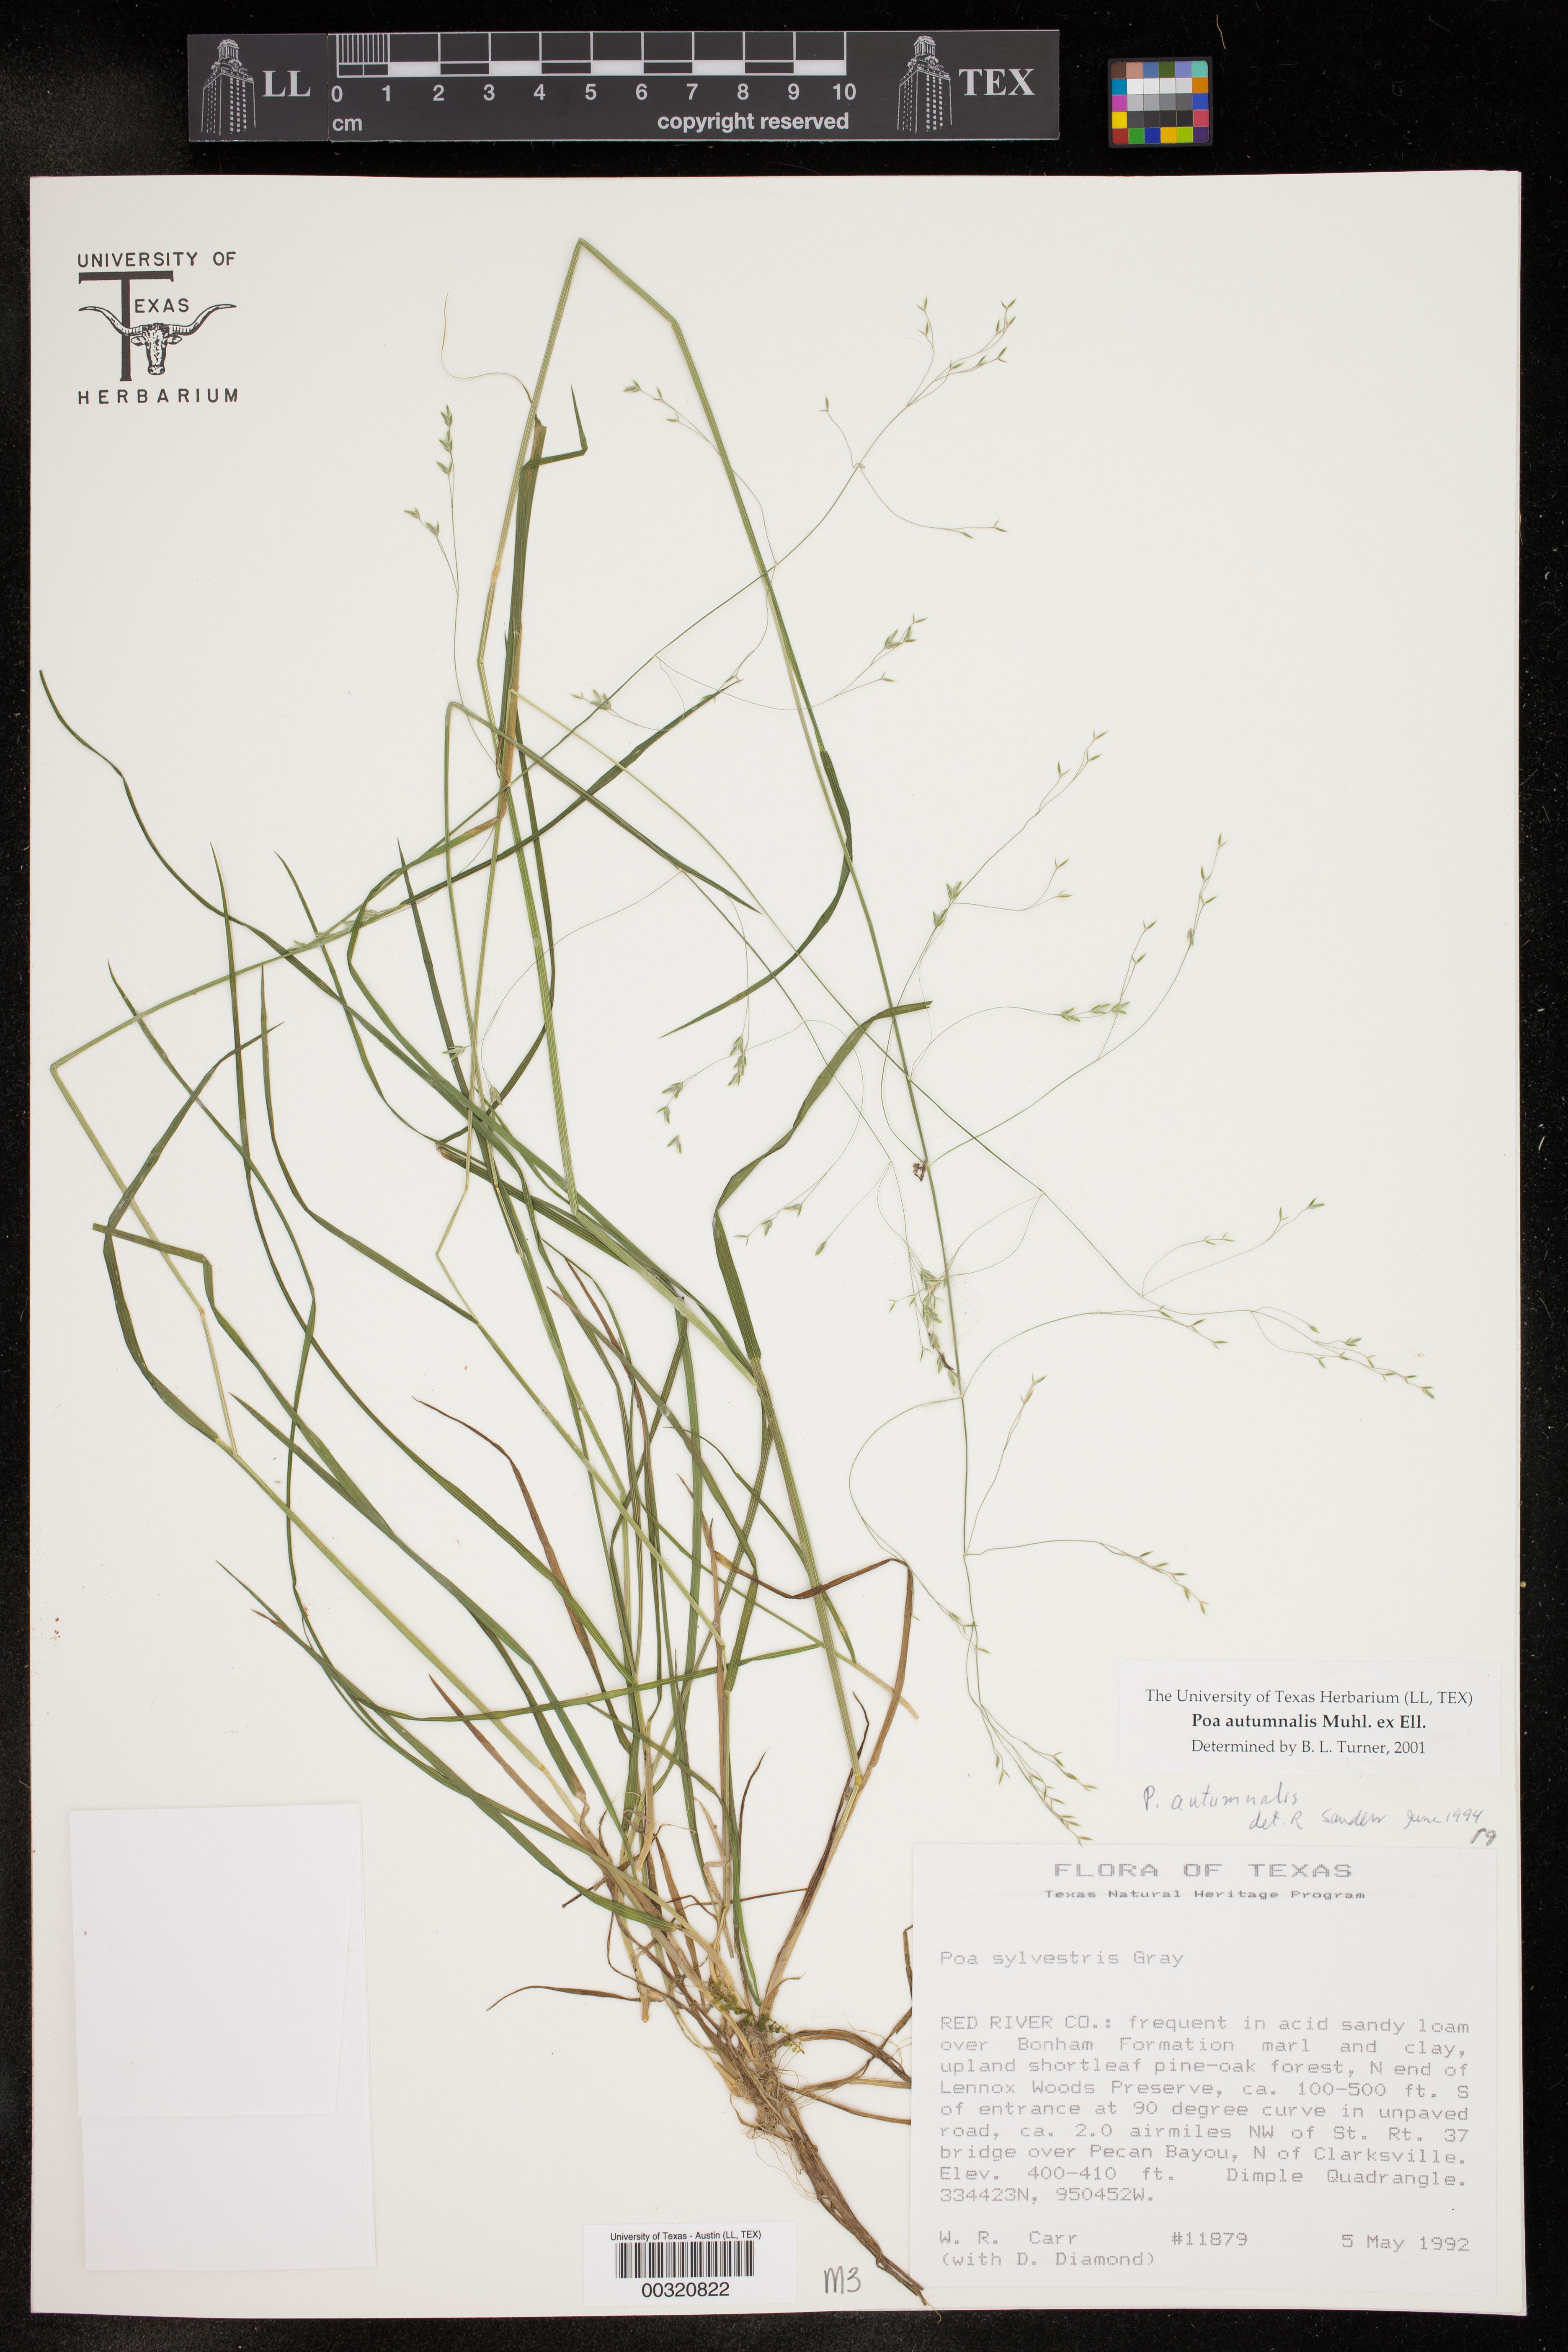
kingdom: Plantae
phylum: Tracheophyta
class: Liliopsida
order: Poales
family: Poaceae
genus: Poa
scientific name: Poa autumnalis
